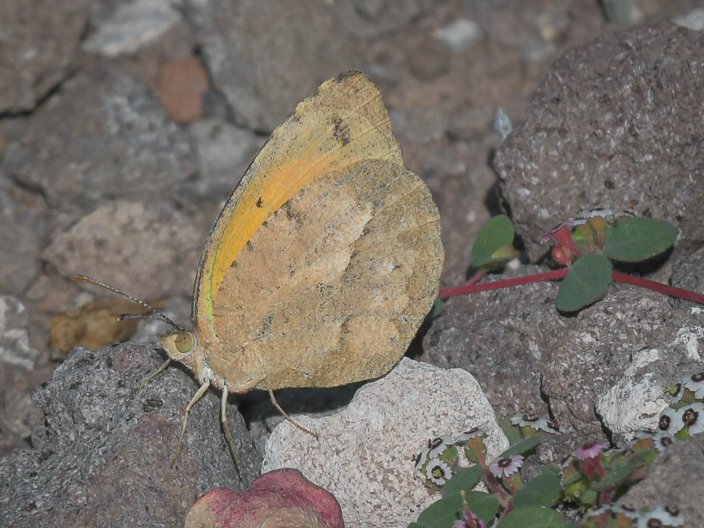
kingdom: Animalia
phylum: Arthropoda
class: Insecta
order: Lepidoptera
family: Pieridae
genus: Abaeis
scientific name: Abaeis nicippe
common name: Sleepy Orange
